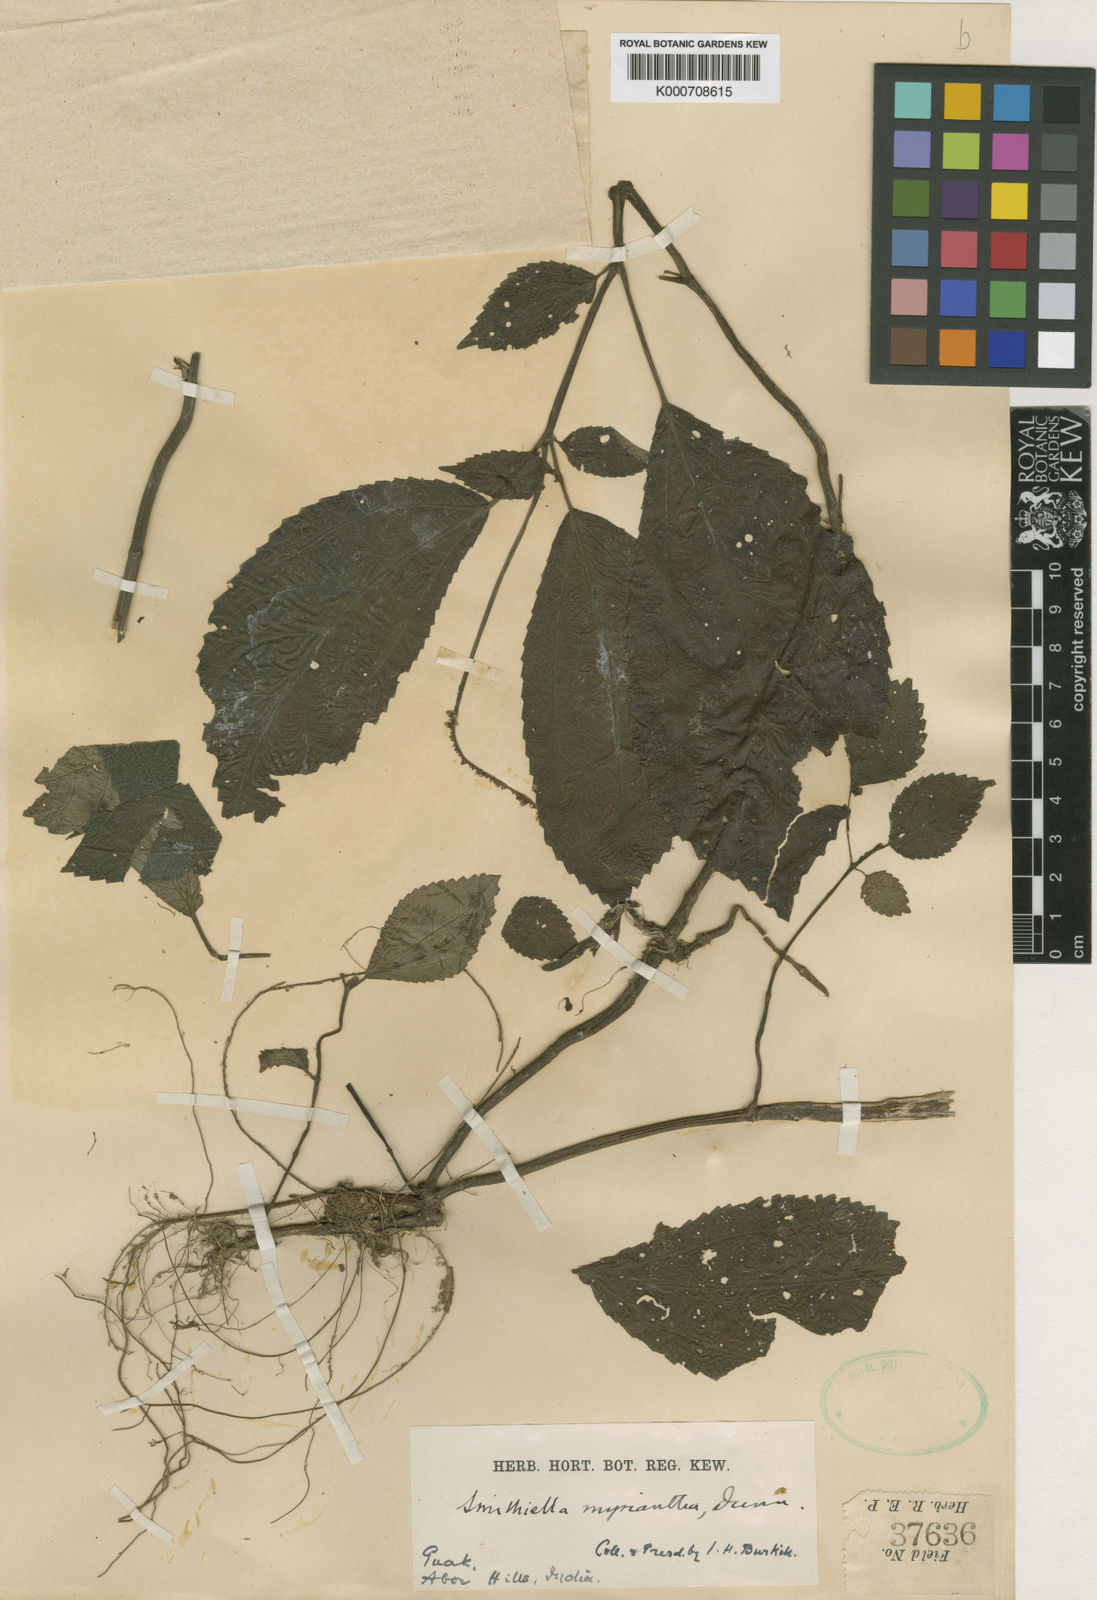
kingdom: Plantae
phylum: Tracheophyta
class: Magnoliopsida
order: Rosales
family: Urticaceae
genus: Pilea
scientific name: Pilea myriantha
